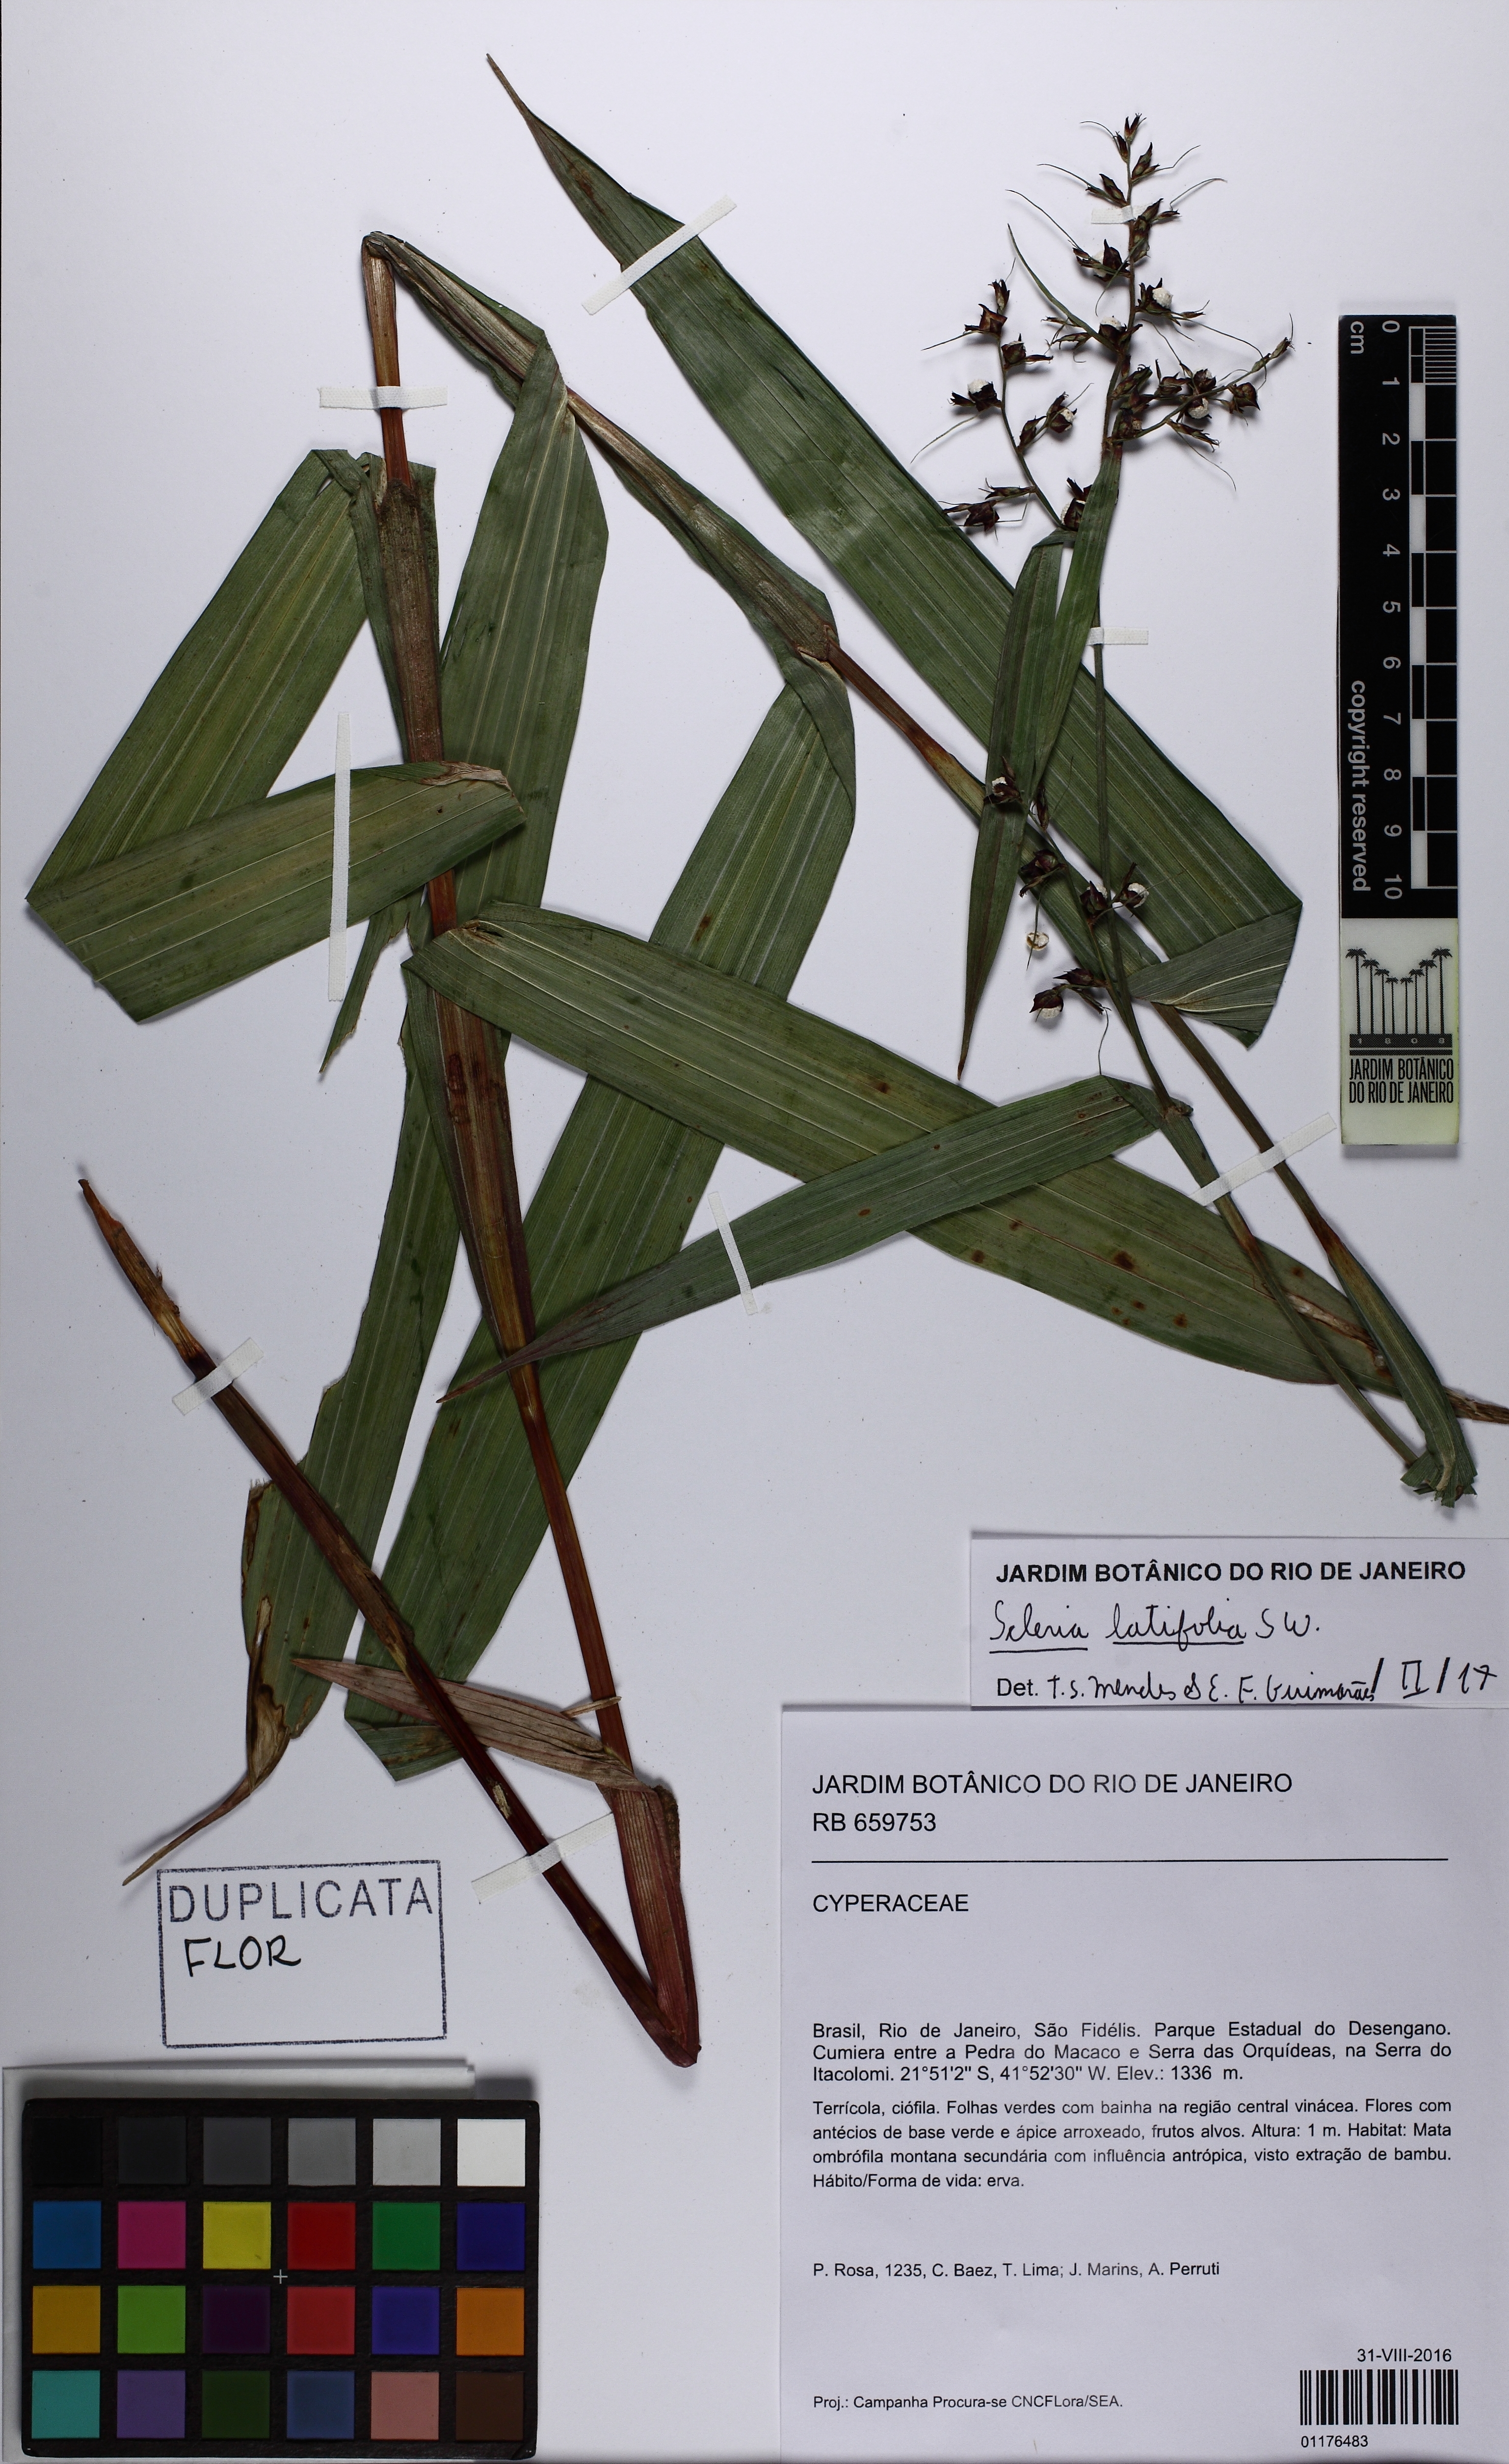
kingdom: Plantae
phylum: Tracheophyta
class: Liliopsida
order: Poales
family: Cyperaceae
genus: Scleria
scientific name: Scleria plusiophylla
